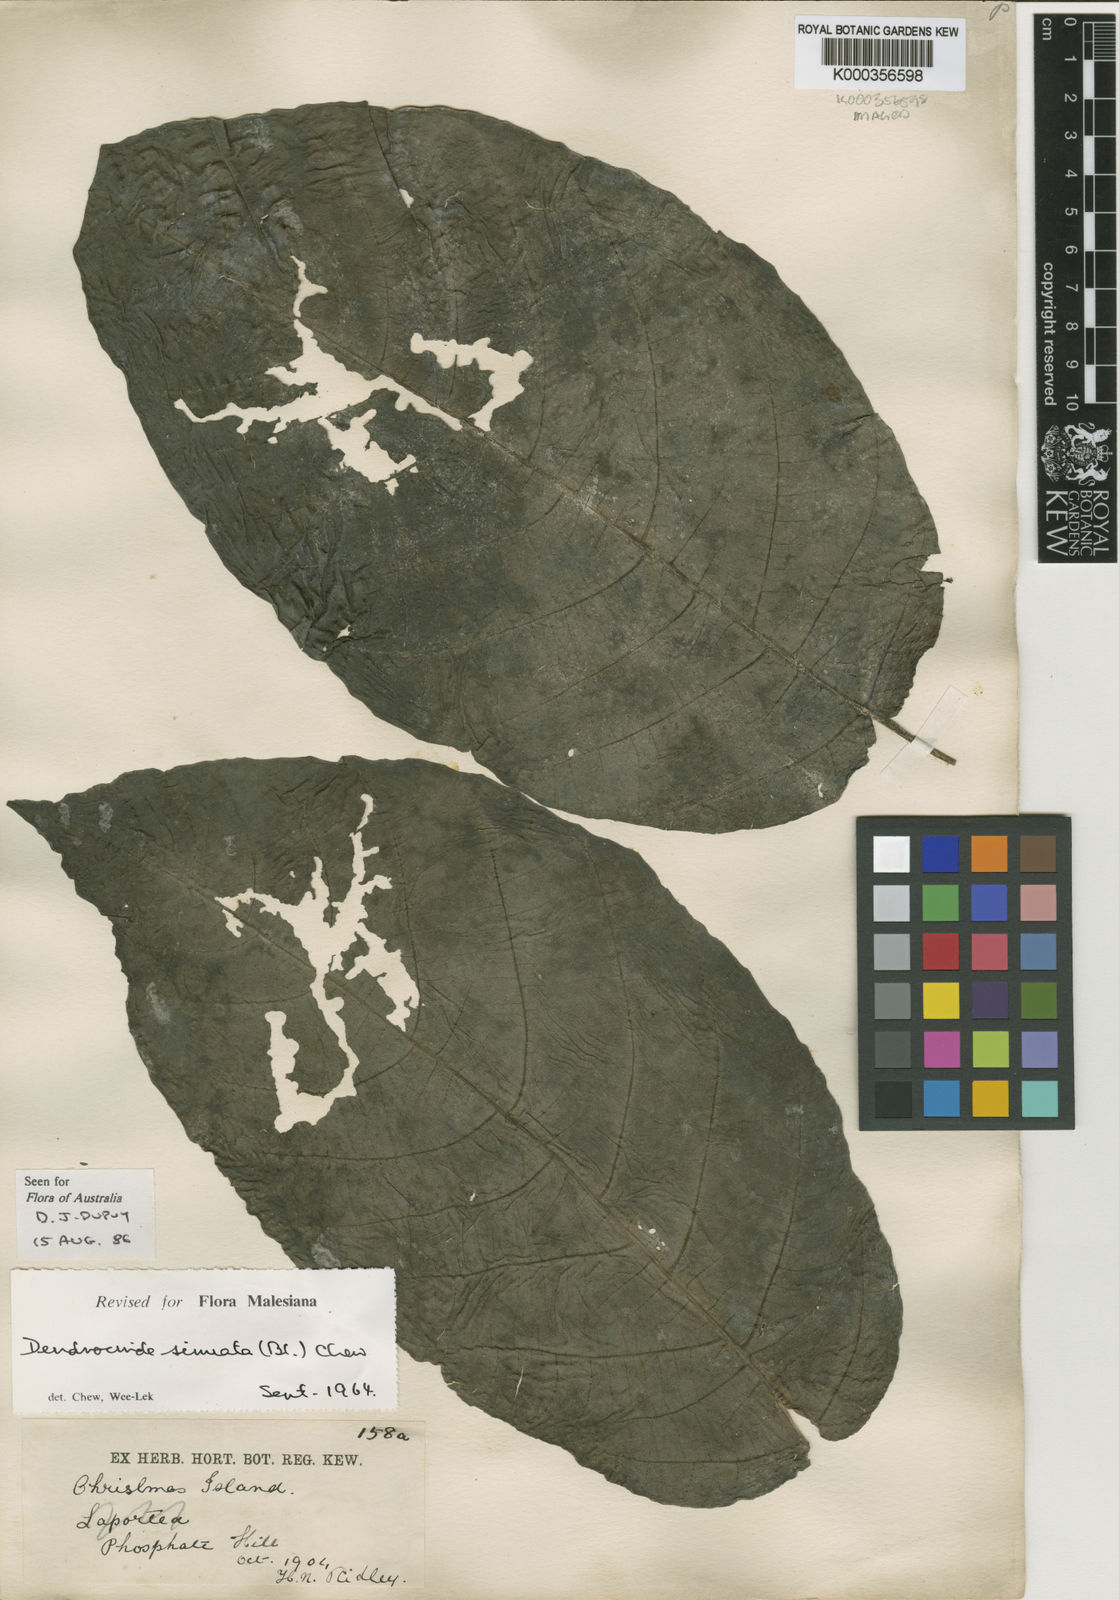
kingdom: Plantae
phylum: Tracheophyta
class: Magnoliopsida
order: Rosales
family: Urticaceae
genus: Dendrocnide
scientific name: Dendrocnide sinuata
